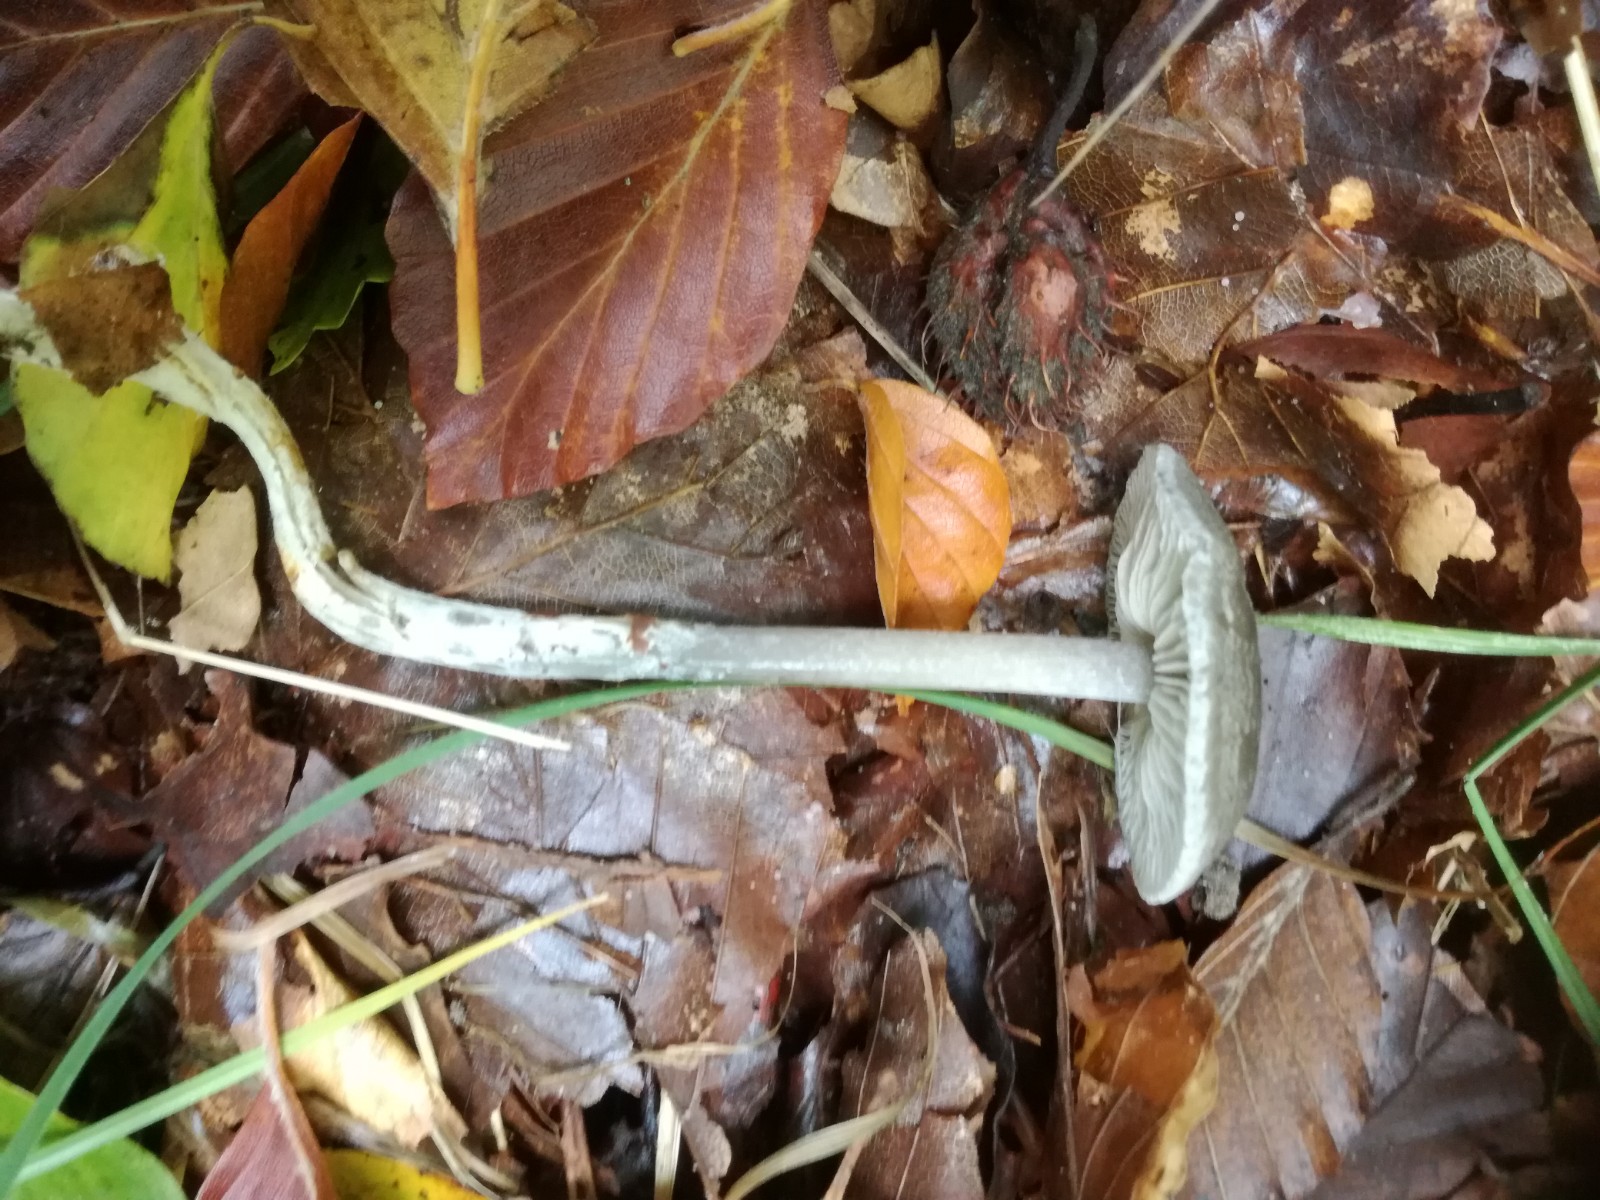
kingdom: Fungi
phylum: Basidiomycota
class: Agaricomycetes
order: Agaricales
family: Lyophyllaceae
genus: Tephrocybe
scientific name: Tephrocybe rancida
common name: mel-gråblad
